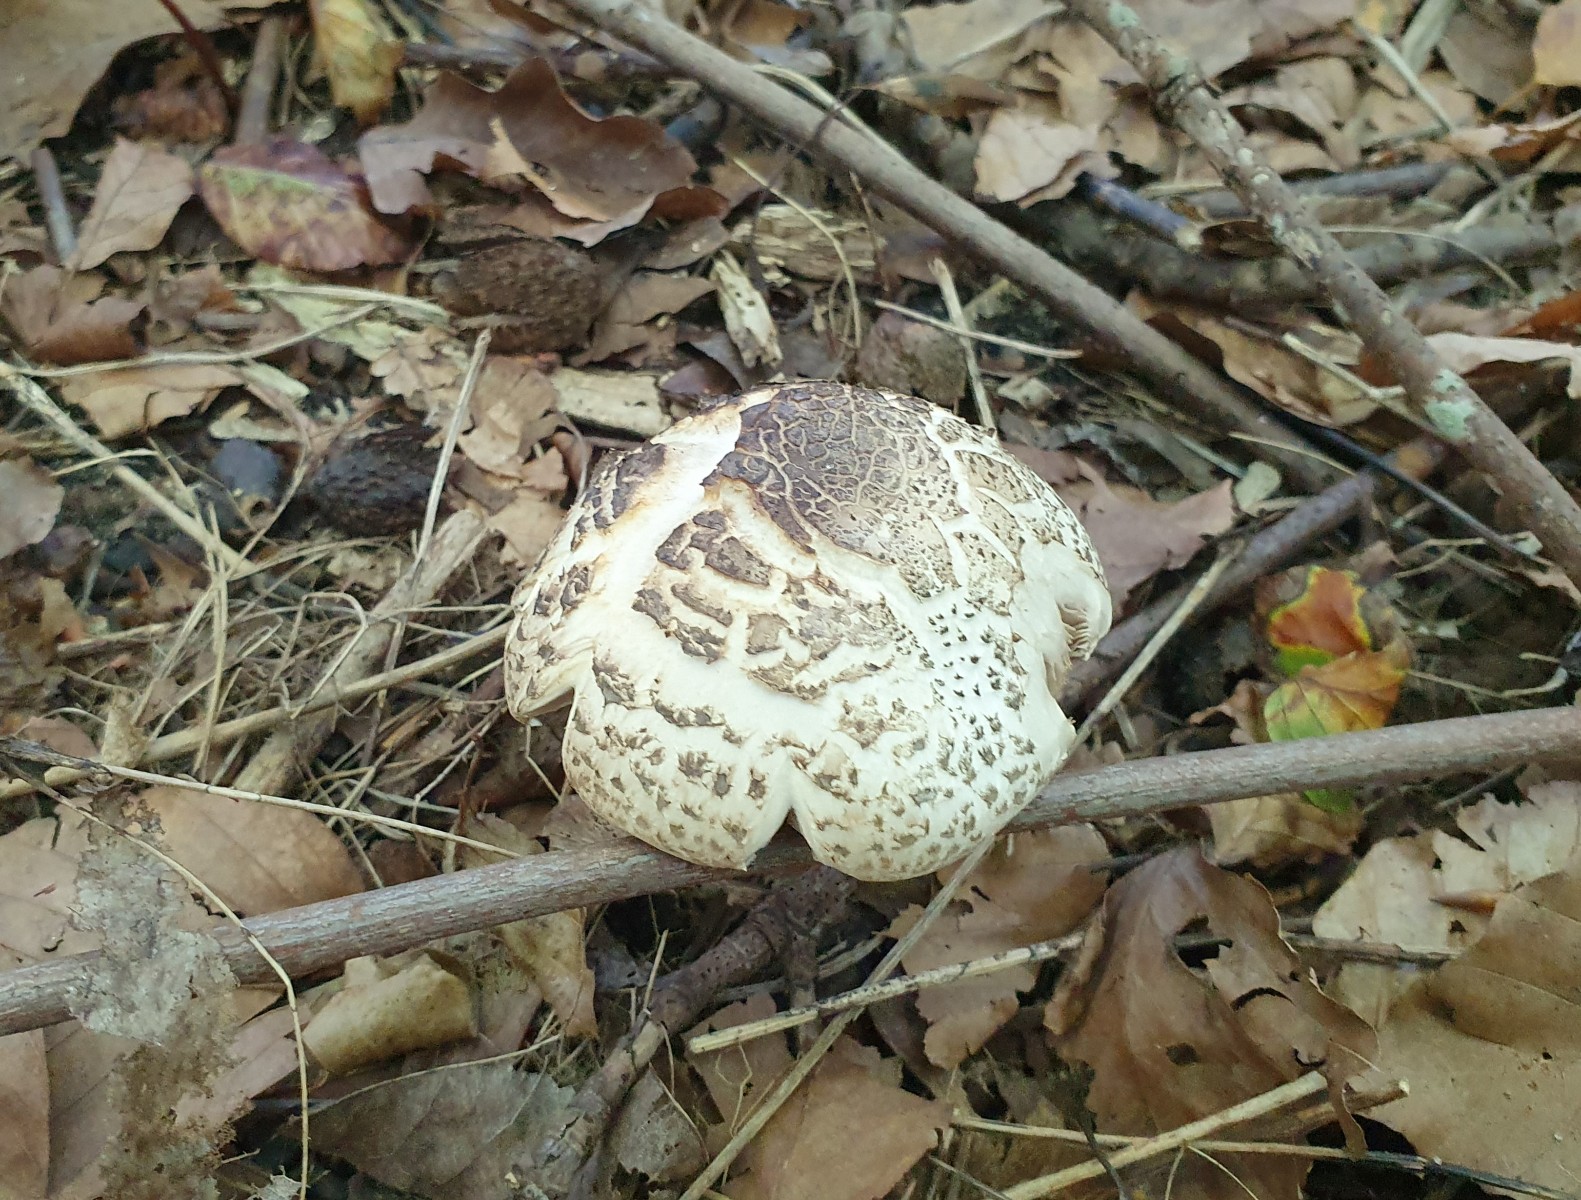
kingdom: Fungi
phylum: Basidiomycota
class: Agaricomycetes
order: Agaricales
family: Agaricaceae
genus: Agaricus
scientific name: Agaricus moelleri
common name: perlehøne-champignon
